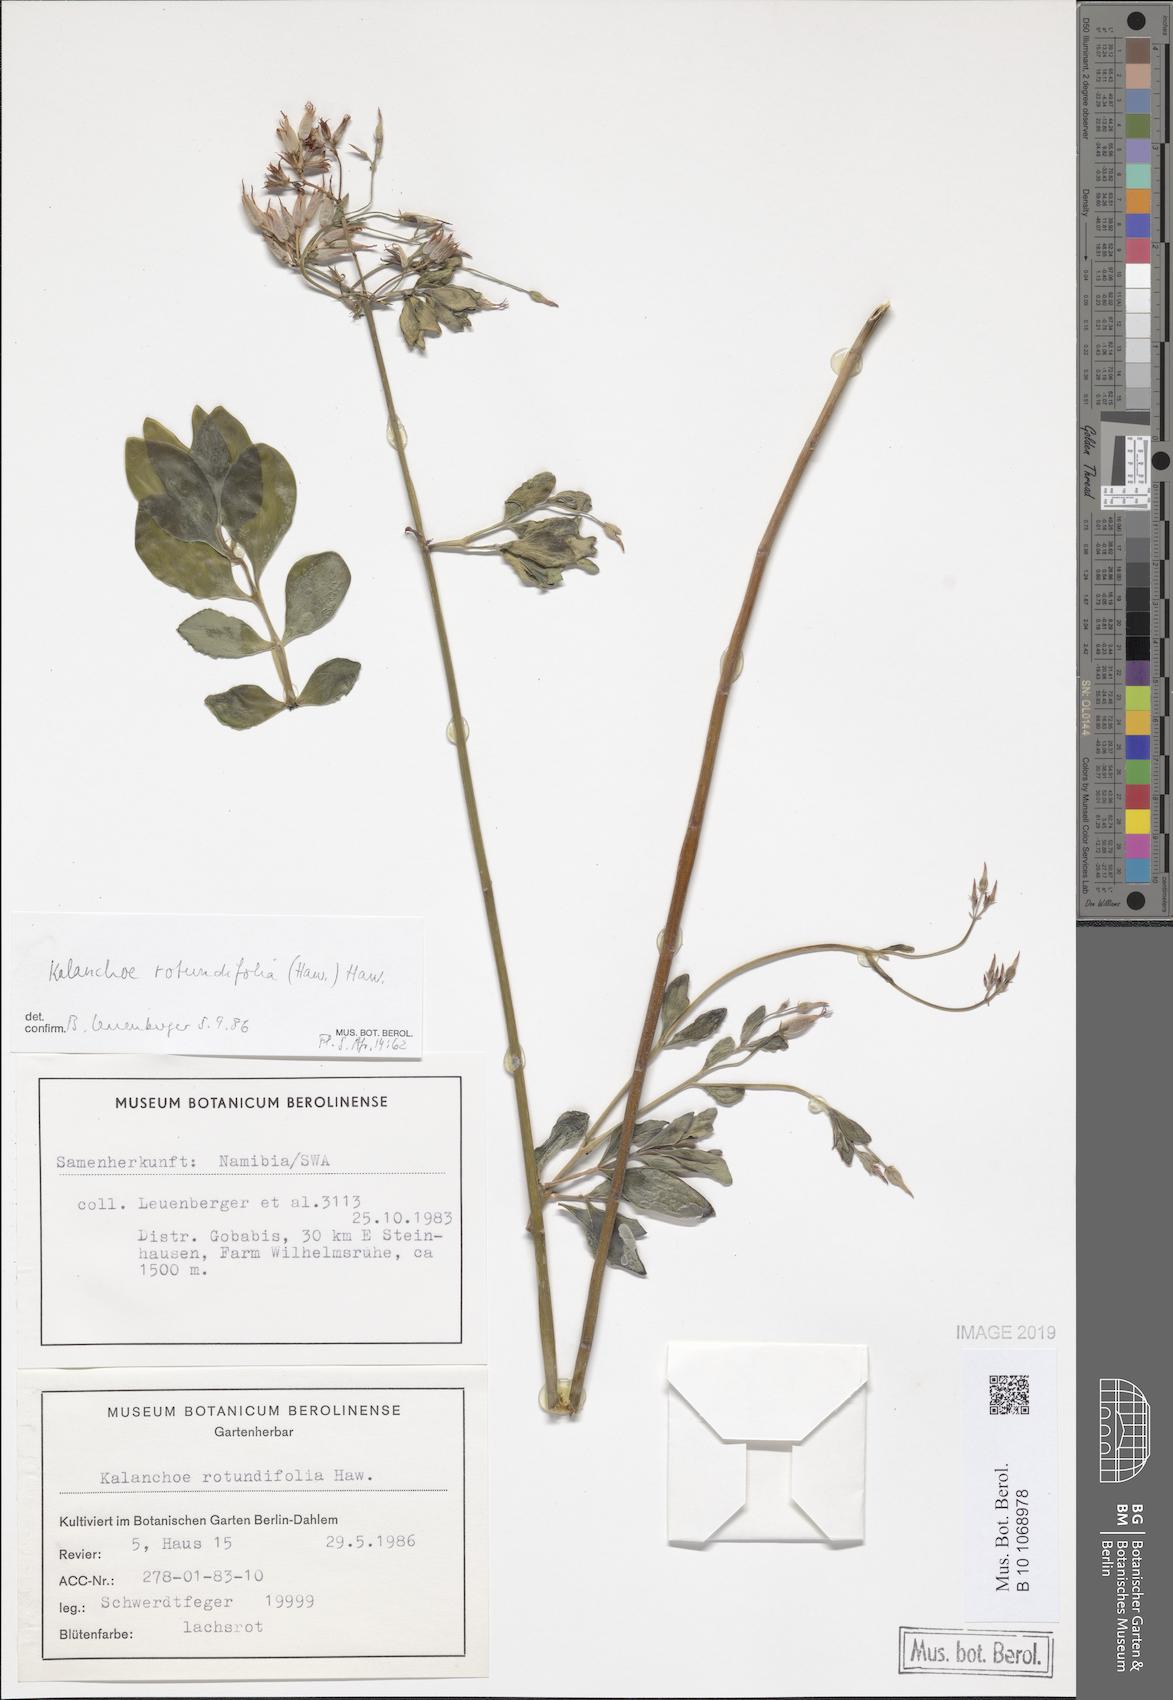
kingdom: Plantae
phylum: Tracheophyta
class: Magnoliopsida
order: Saxifragales
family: Crassulaceae
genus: Kalanchoe
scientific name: Kalanchoe rotundifolia
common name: Common kalanchoe
